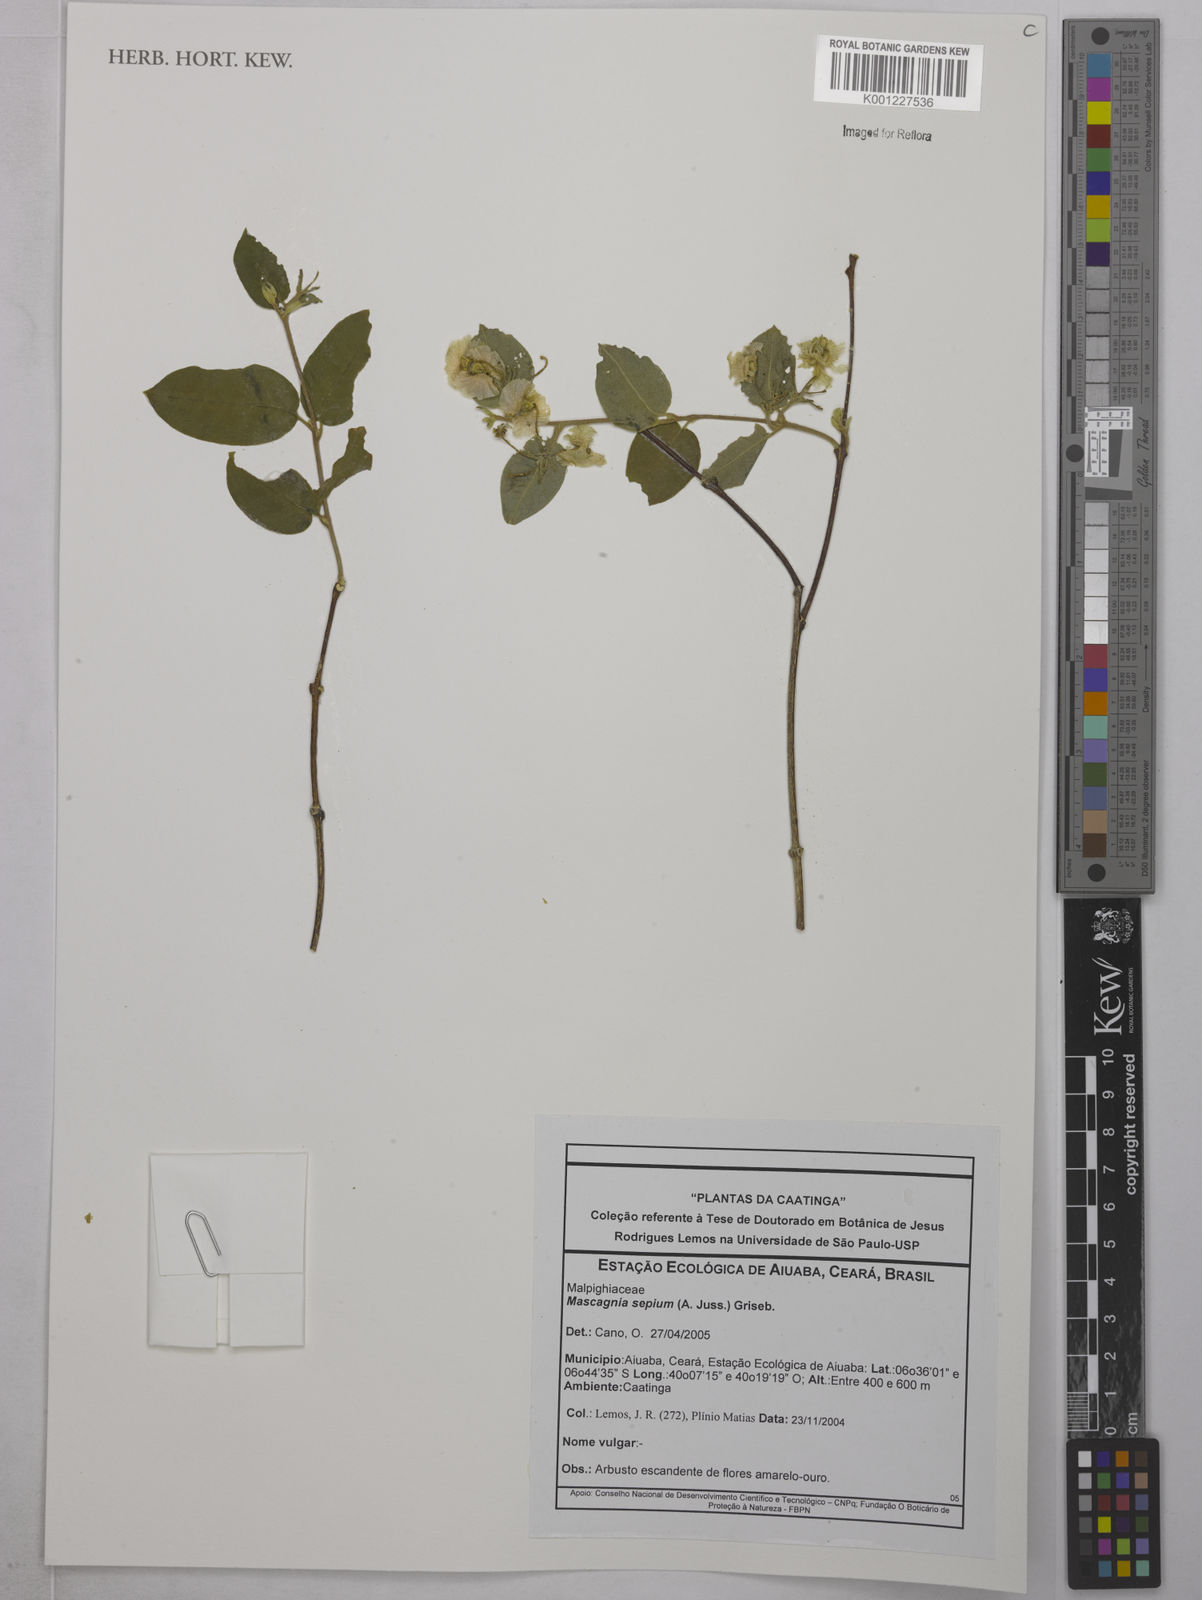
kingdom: Plantae
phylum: Tracheophyta
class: Magnoliopsida
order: Malpighiales
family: Malpighiaceae
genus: Mascagnia
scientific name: Mascagnia sepium
